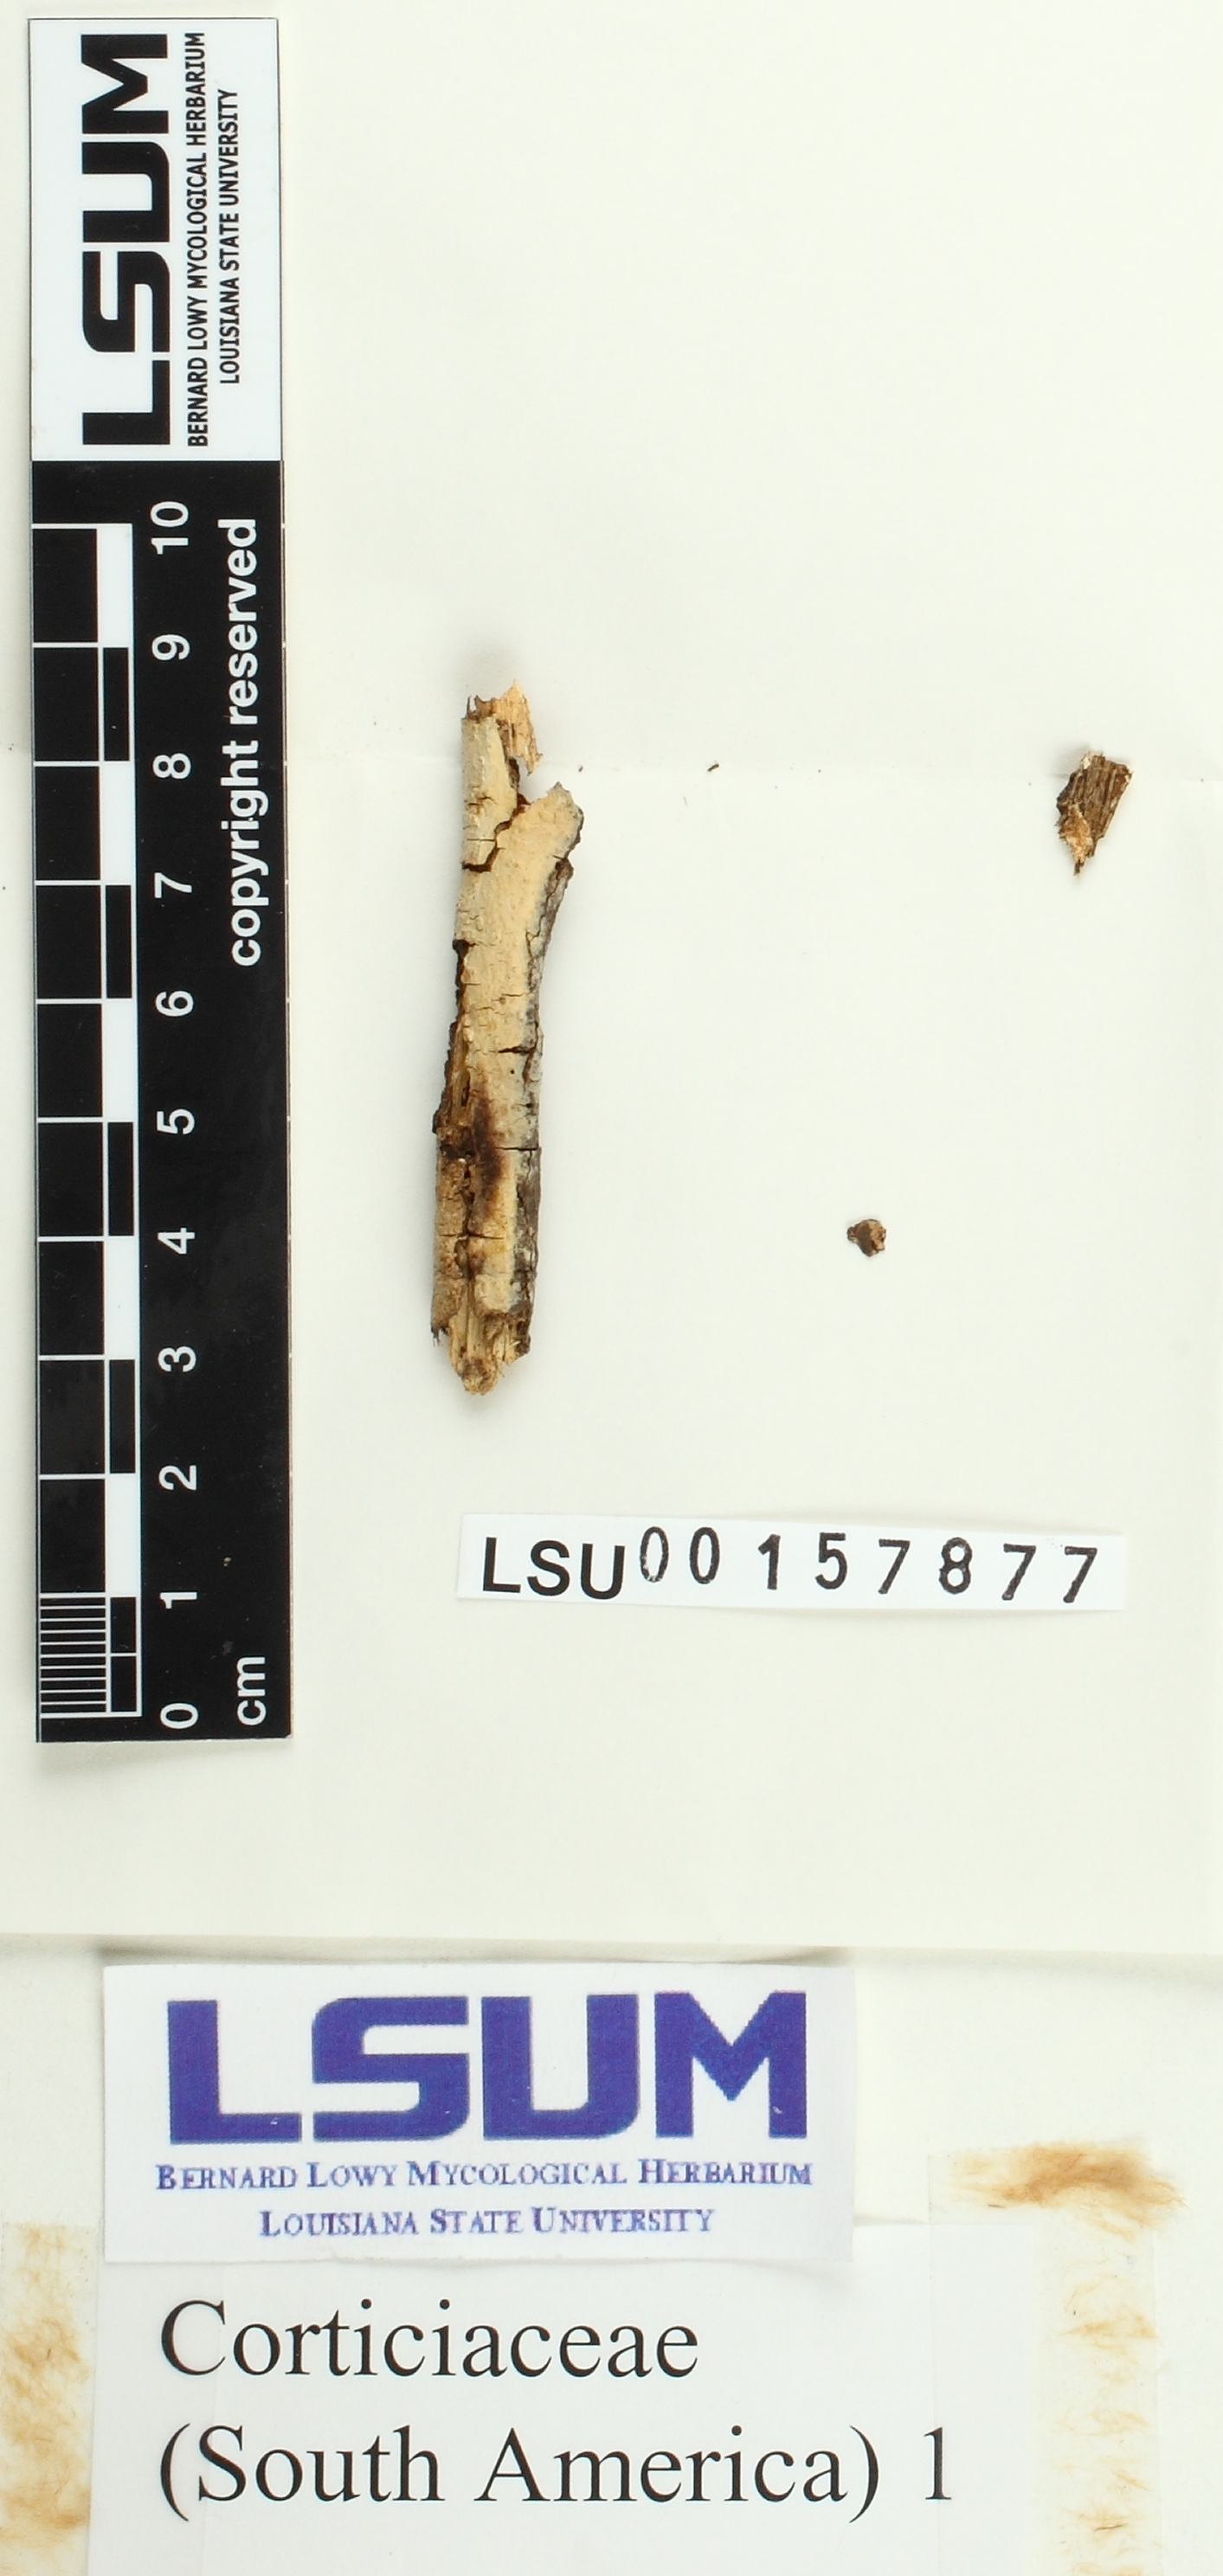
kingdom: Fungi
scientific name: Fungi
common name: Fungi
